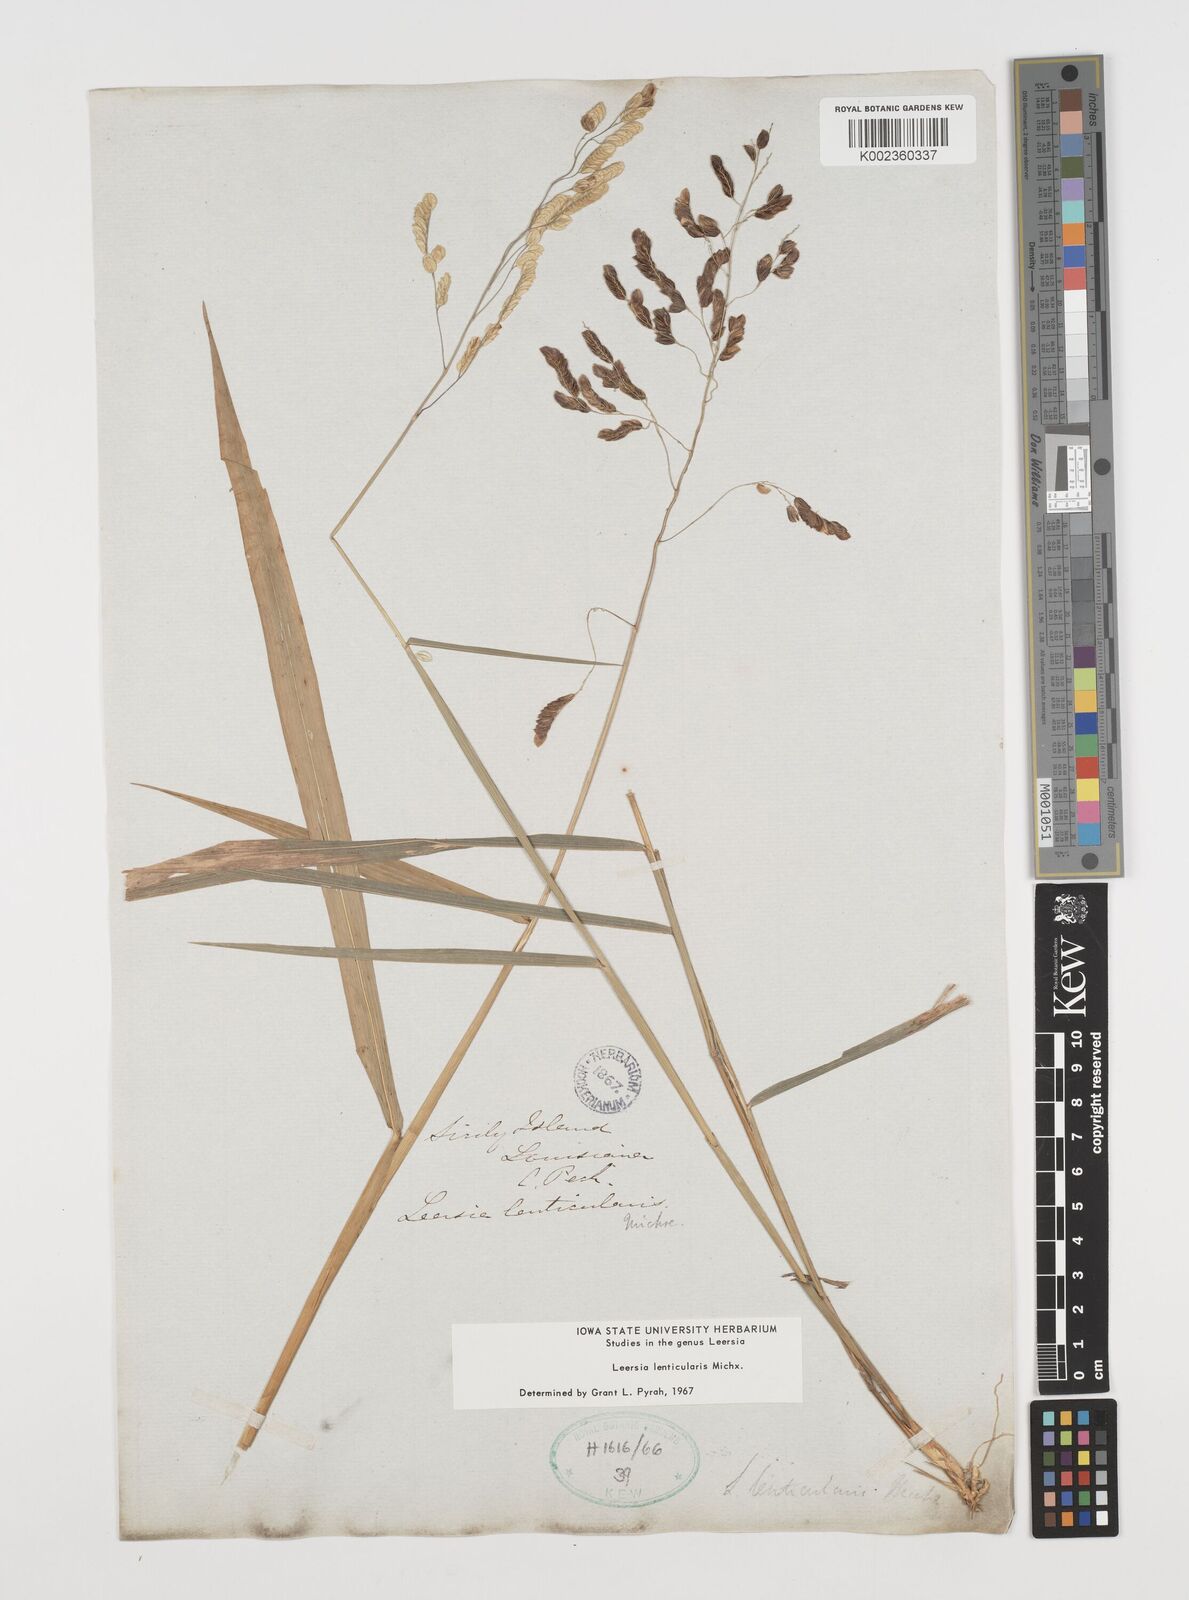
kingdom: Plantae
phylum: Tracheophyta
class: Liliopsida
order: Poales
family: Poaceae
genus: Leersia
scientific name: Leersia lenticularis
